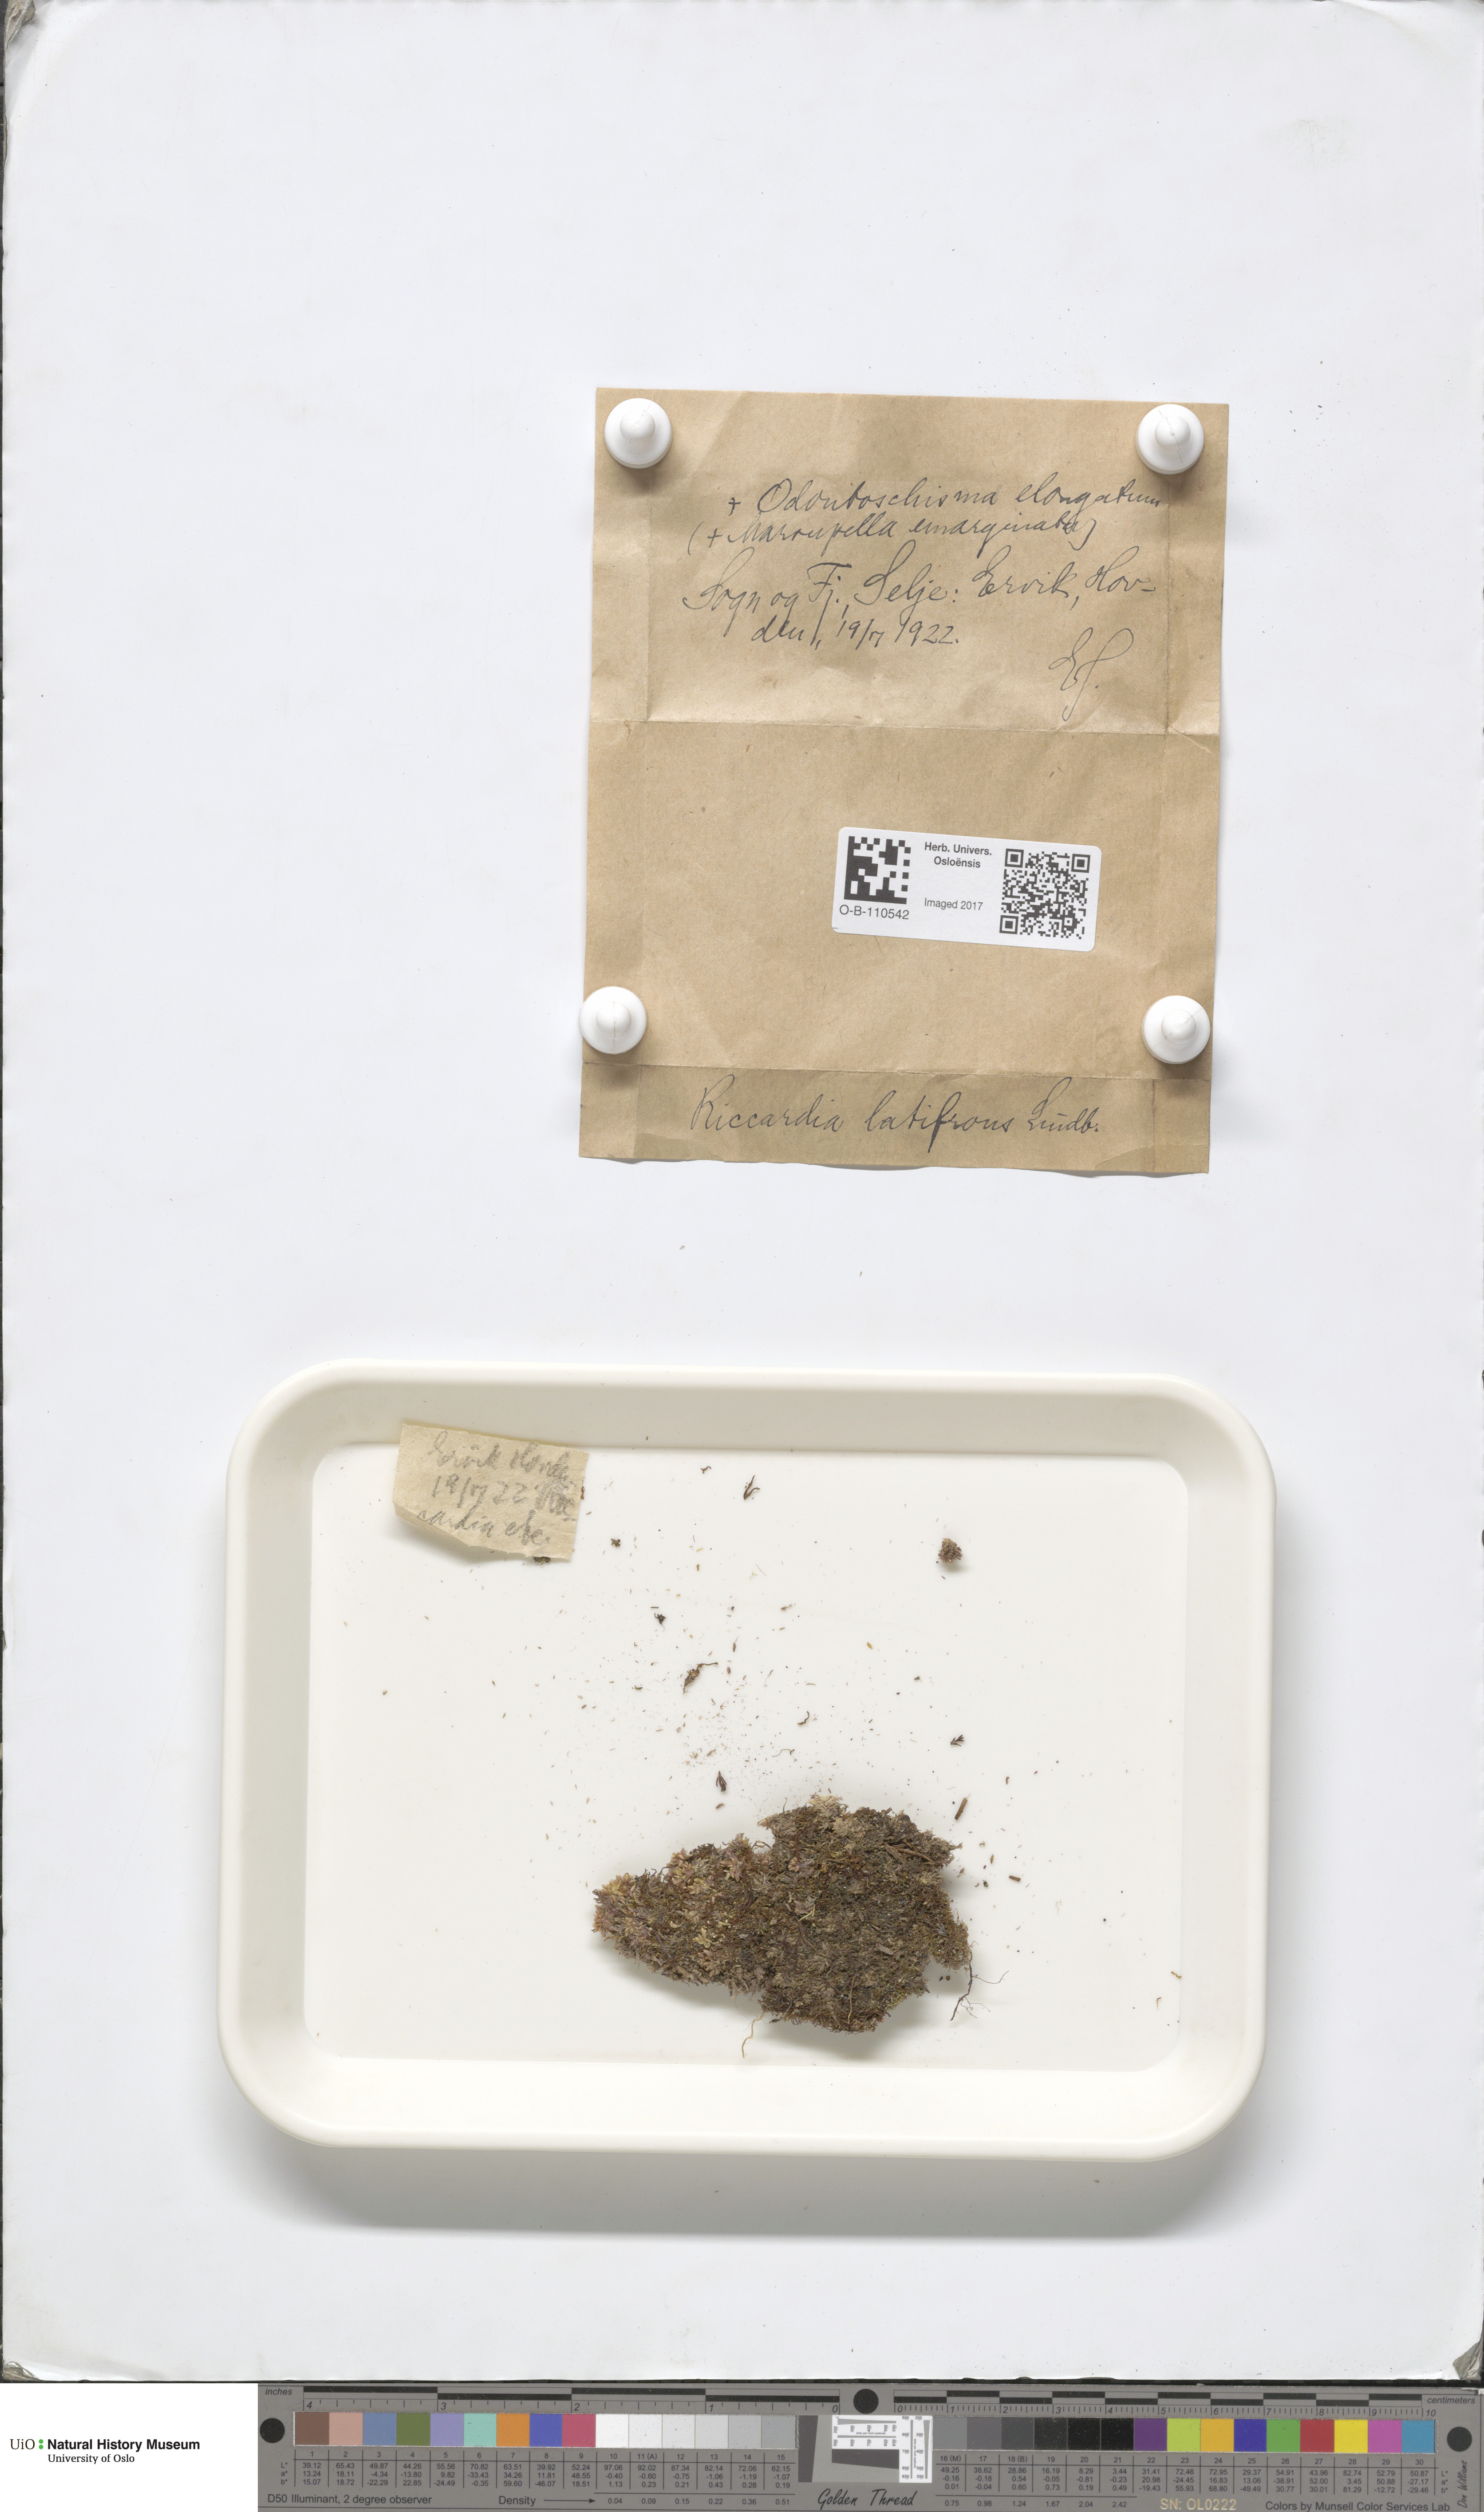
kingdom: Plantae
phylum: Marchantiophyta
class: Jungermanniopsida
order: Metzgeriales
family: Aneuraceae
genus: Riccardia
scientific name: Riccardia latifrons
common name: Bog germanderwort
